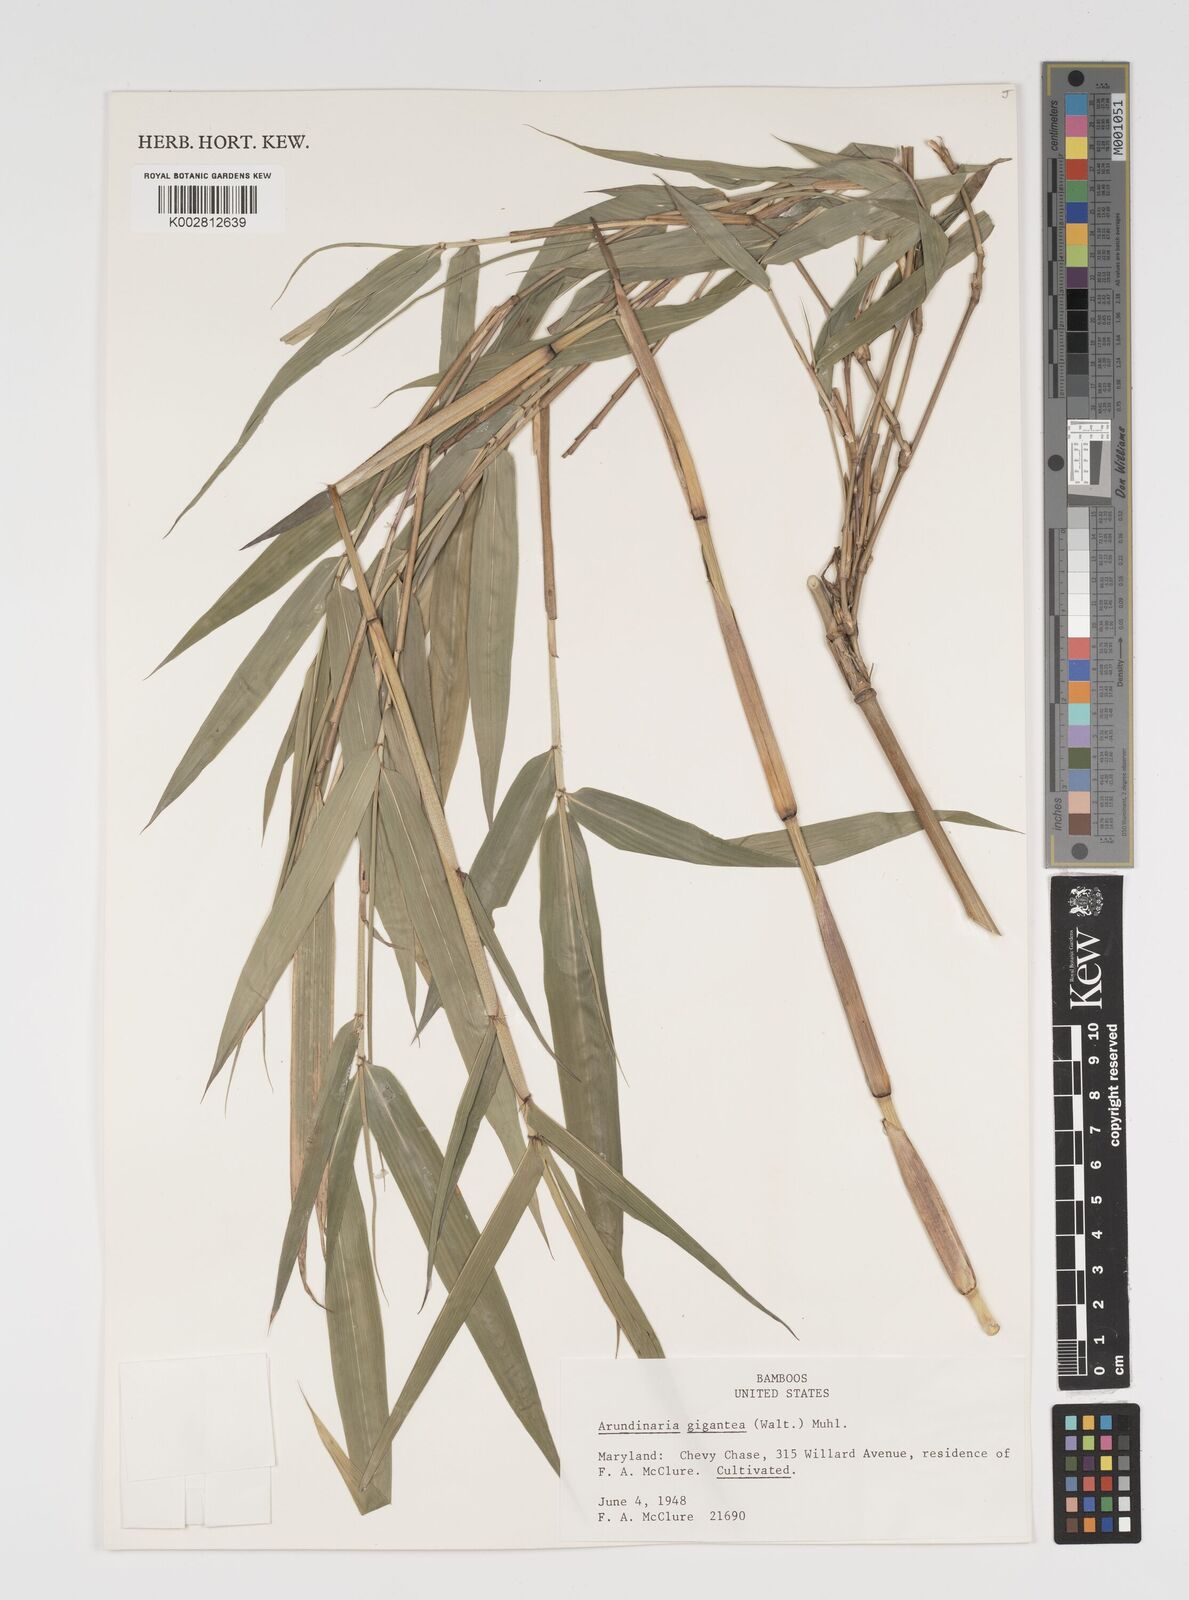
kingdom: Plantae
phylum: Tracheophyta
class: Liliopsida
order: Poales
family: Poaceae
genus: Arundinaria
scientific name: Arundinaria
